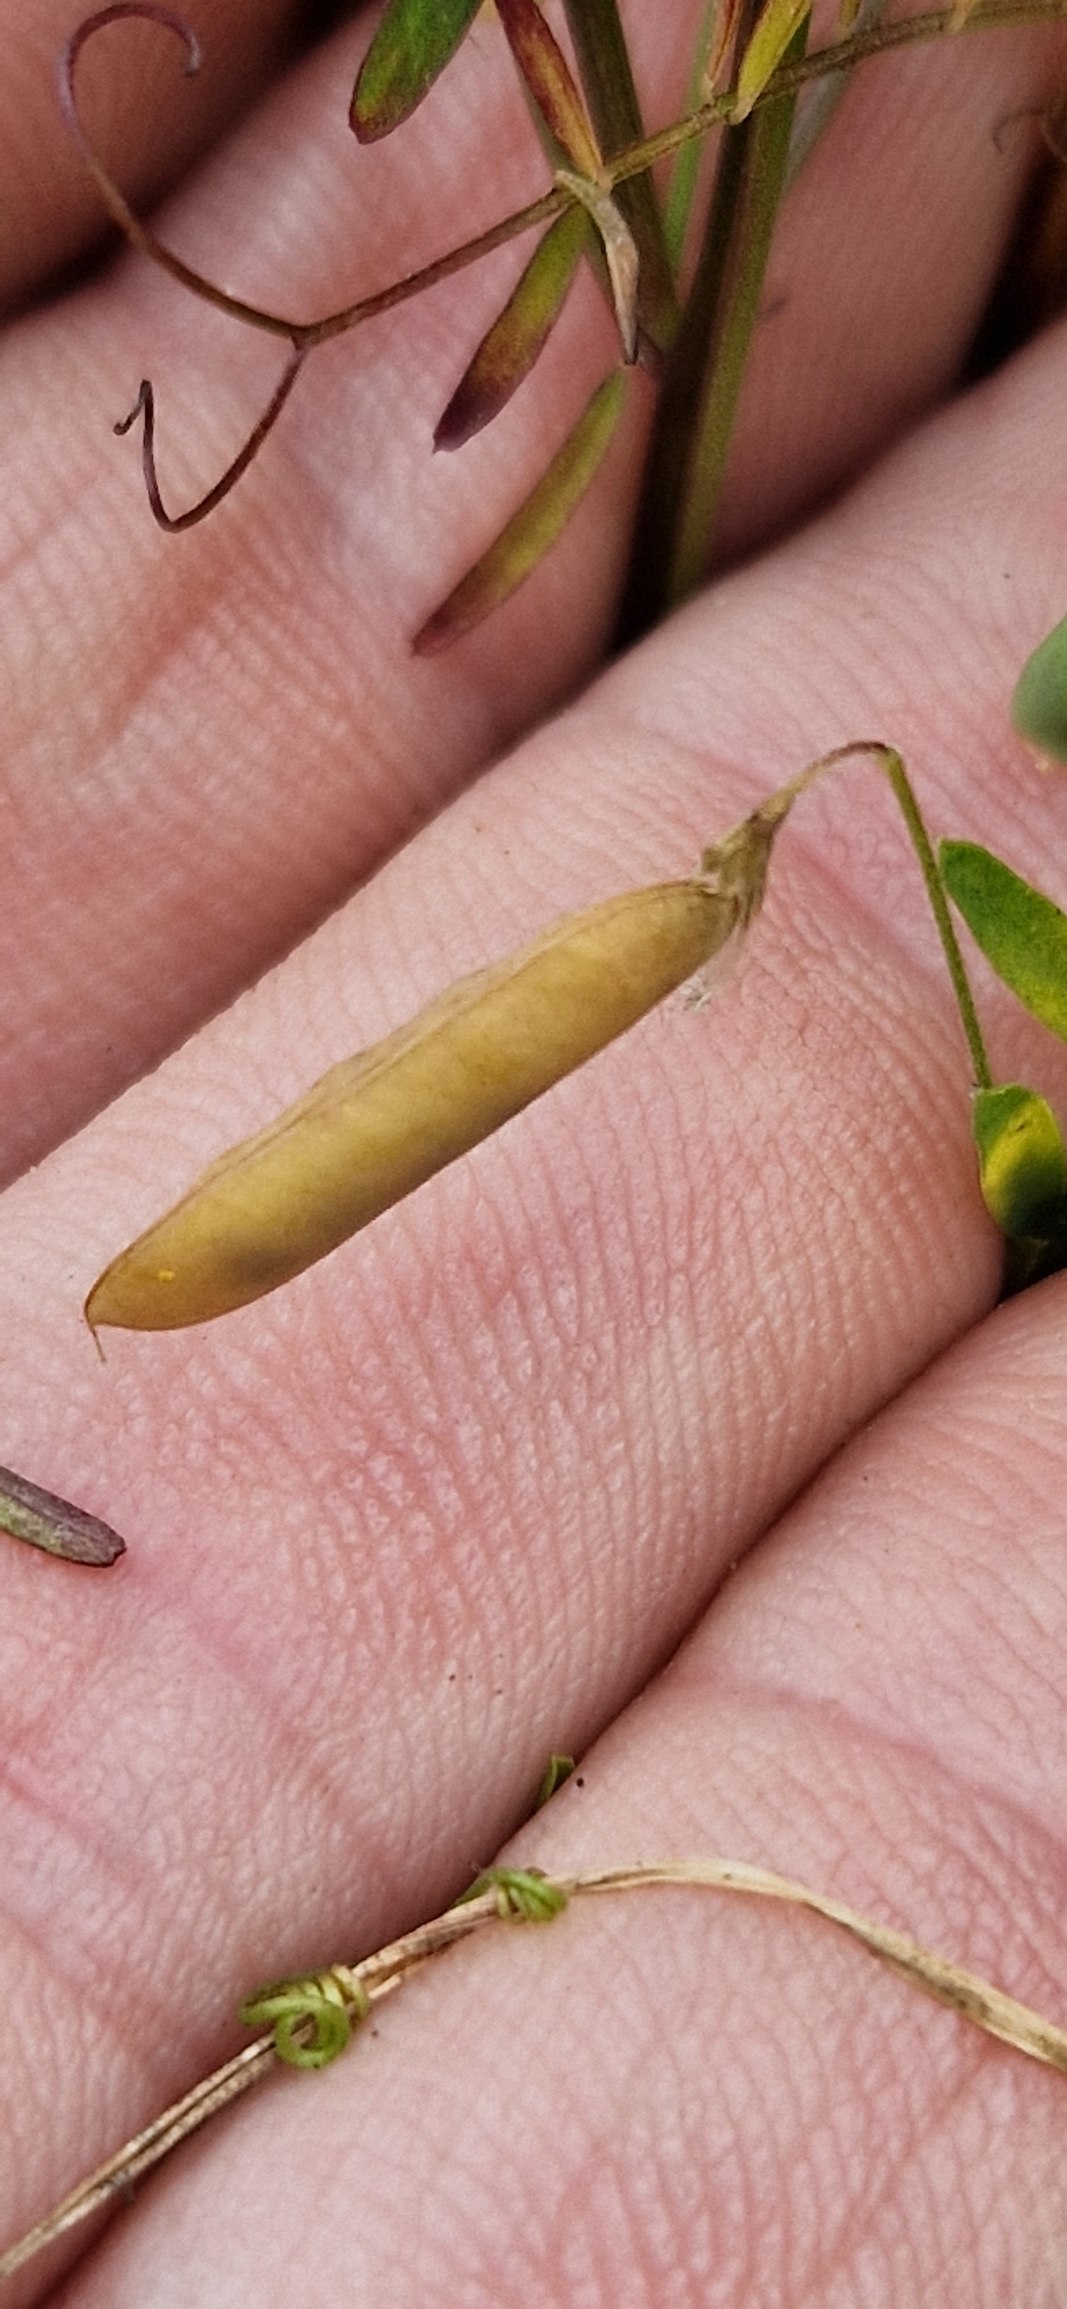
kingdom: Plantae
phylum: Tracheophyta
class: Magnoliopsida
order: Fabales
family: Fabaceae
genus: Vicia
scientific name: Vicia tetrasperma
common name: Tadder-vikke
